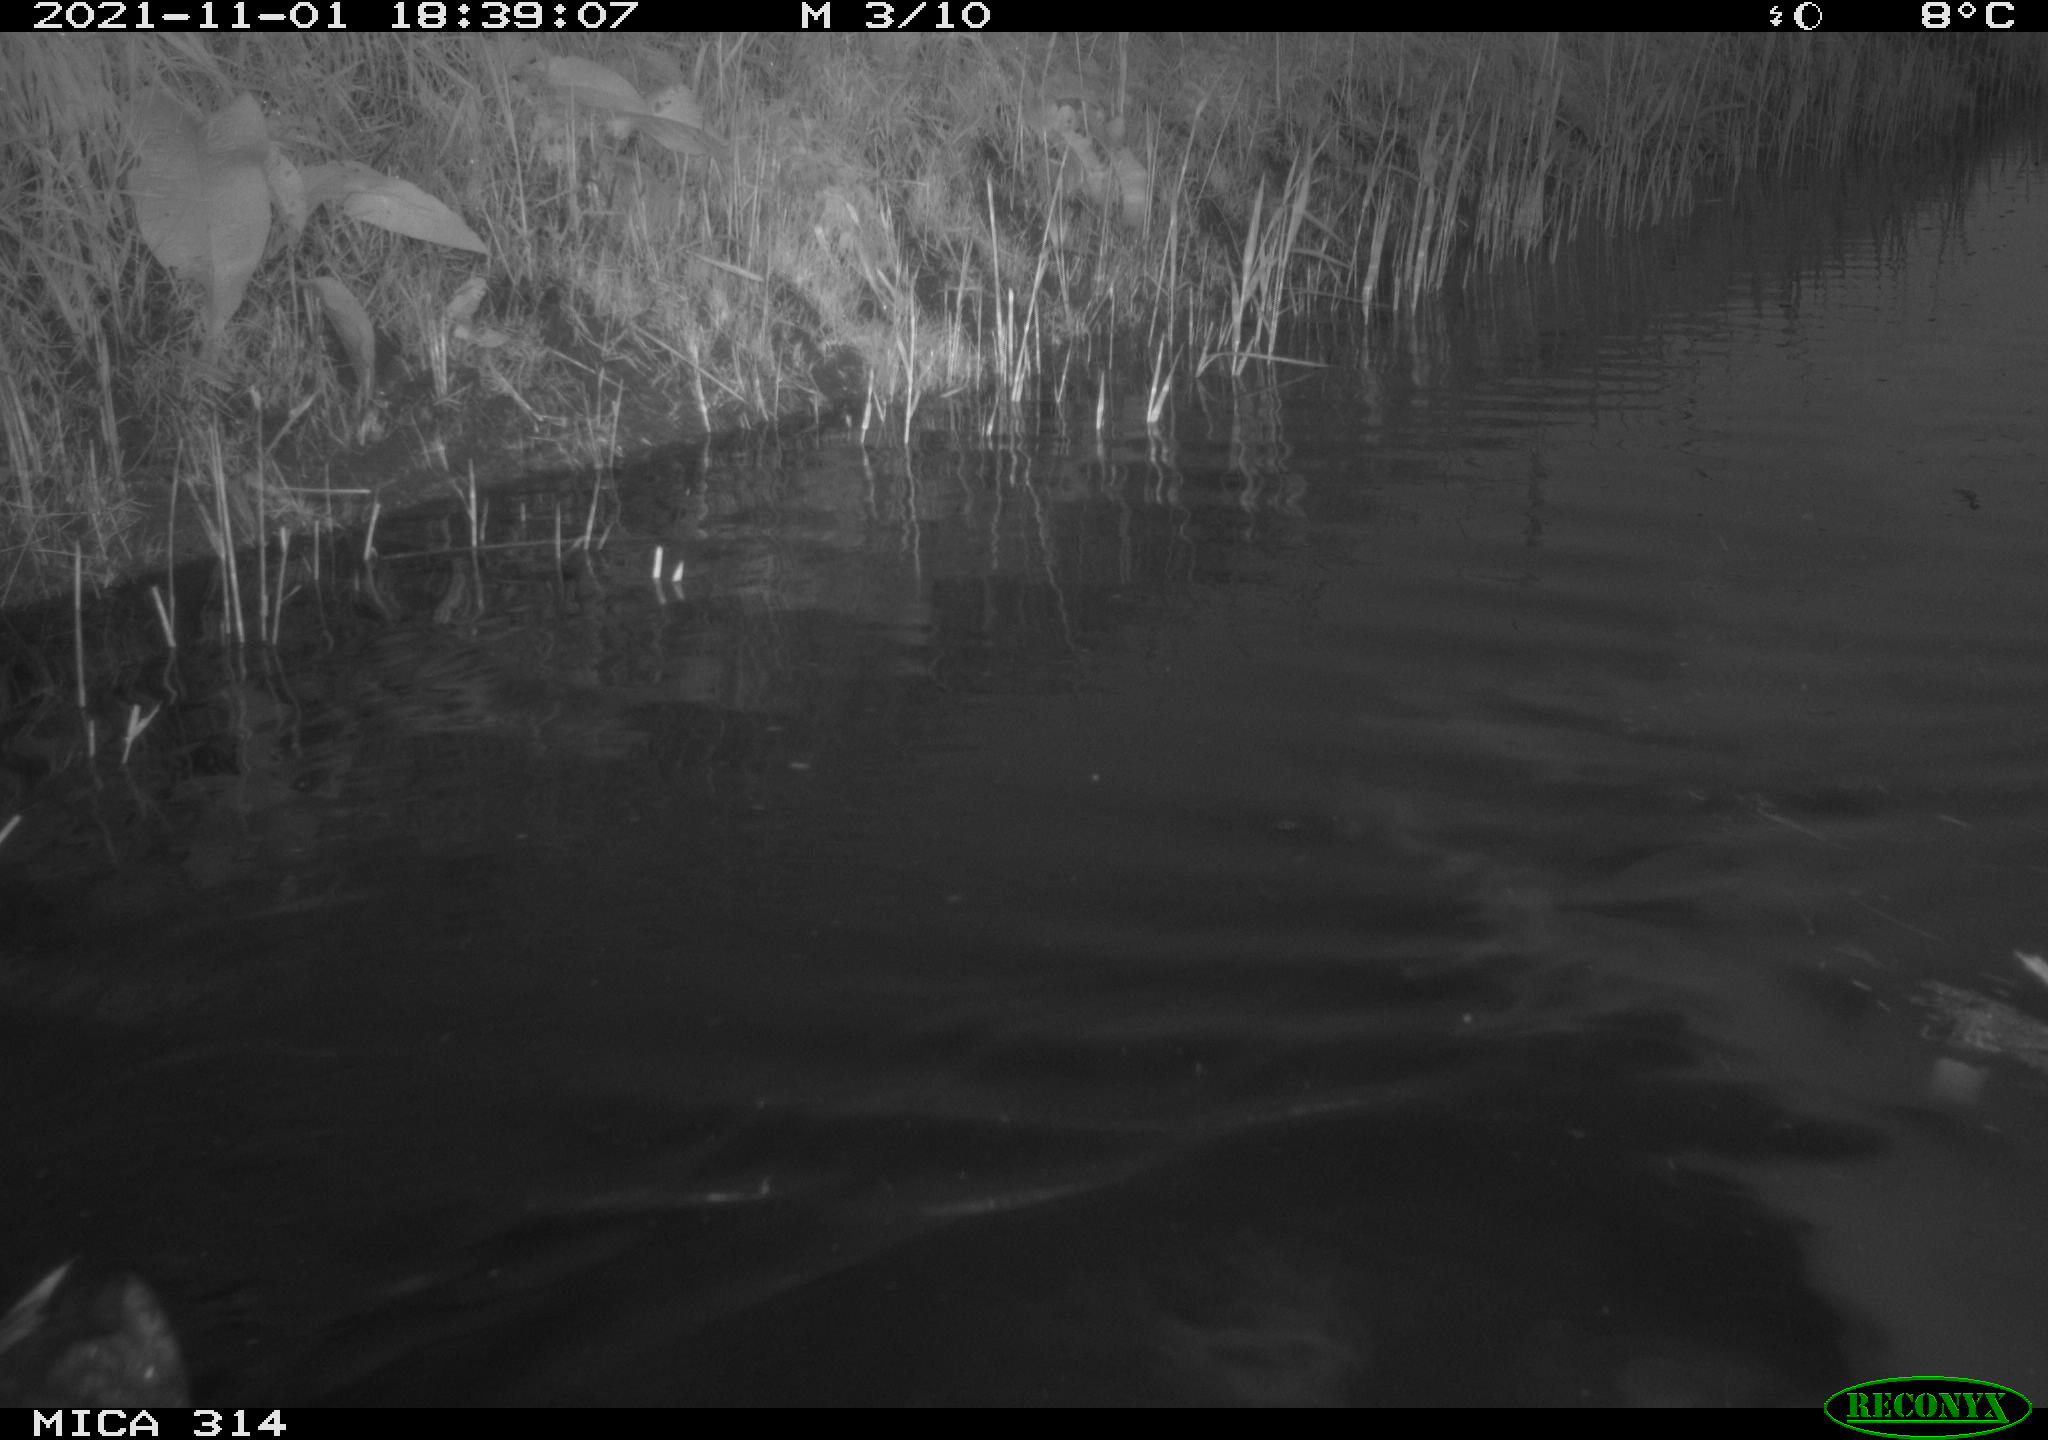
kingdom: Animalia
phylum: Chordata
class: Aves
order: Gruiformes
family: Rallidae
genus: Gallinula
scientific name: Gallinula chloropus
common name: Common moorhen
